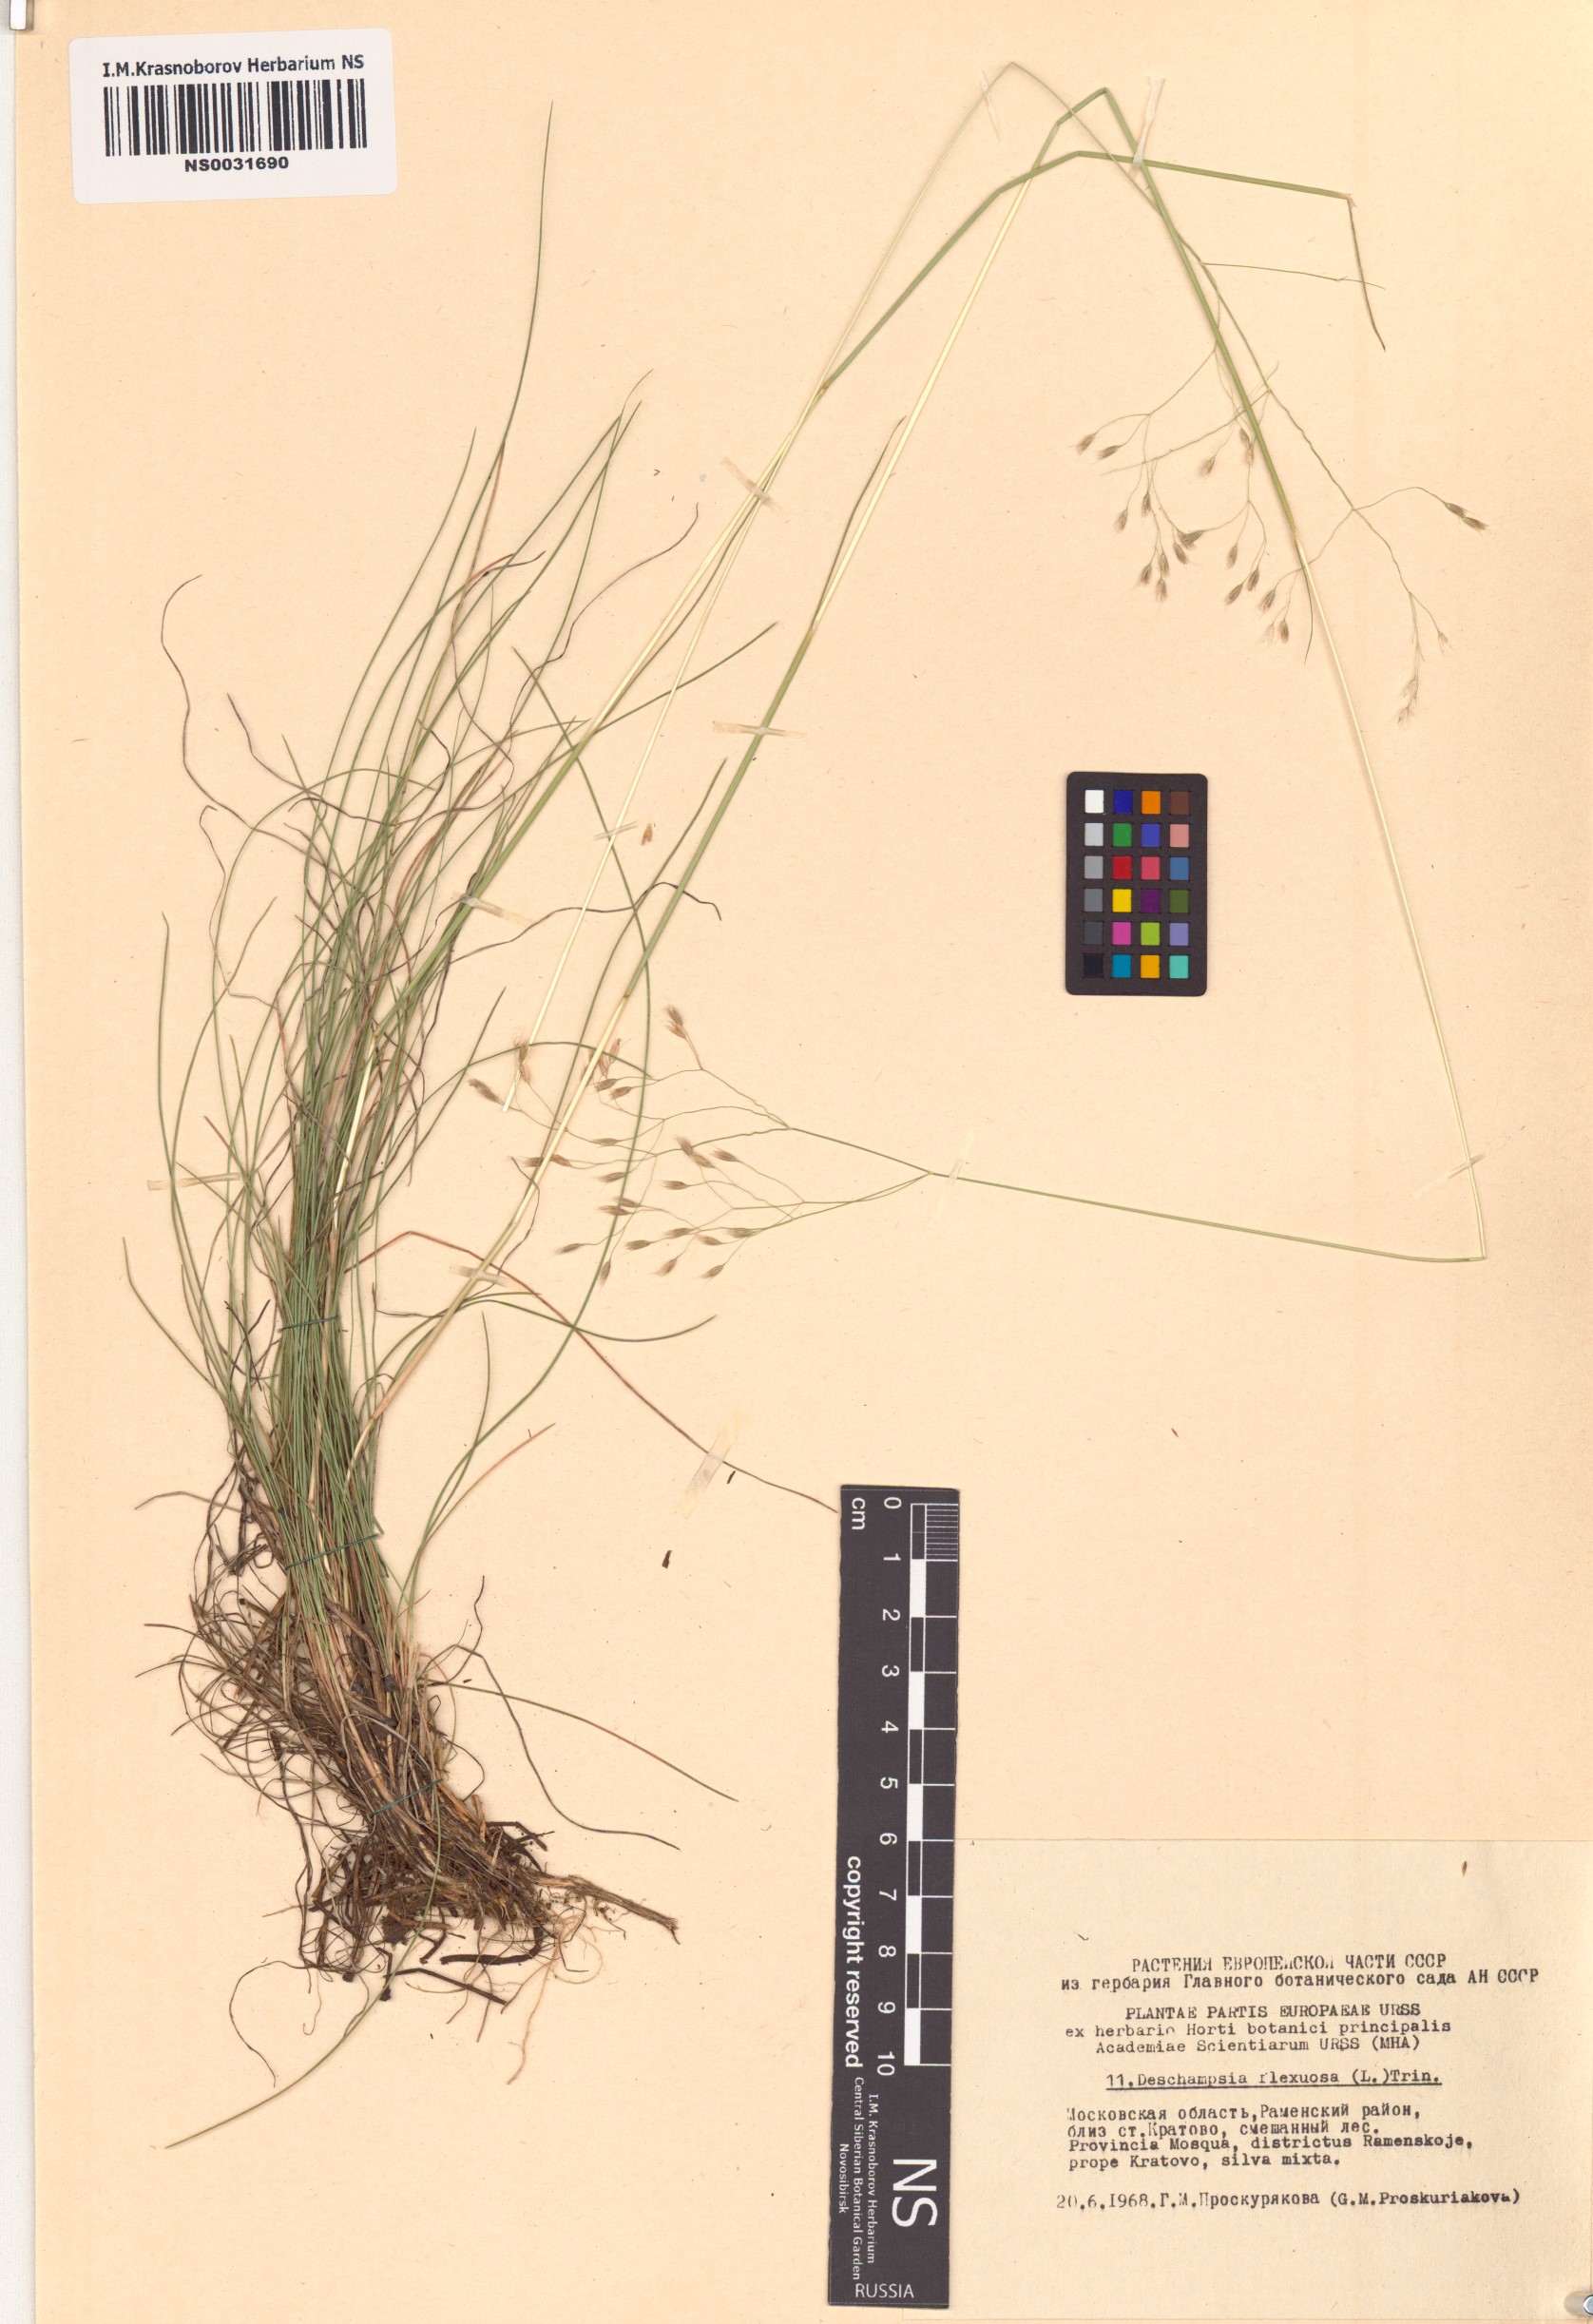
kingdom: Plantae
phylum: Tracheophyta
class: Liliopsida
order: Poales
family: Poaceae
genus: Avenella
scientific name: Avenella flexuosa
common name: Wavy hairgrass
